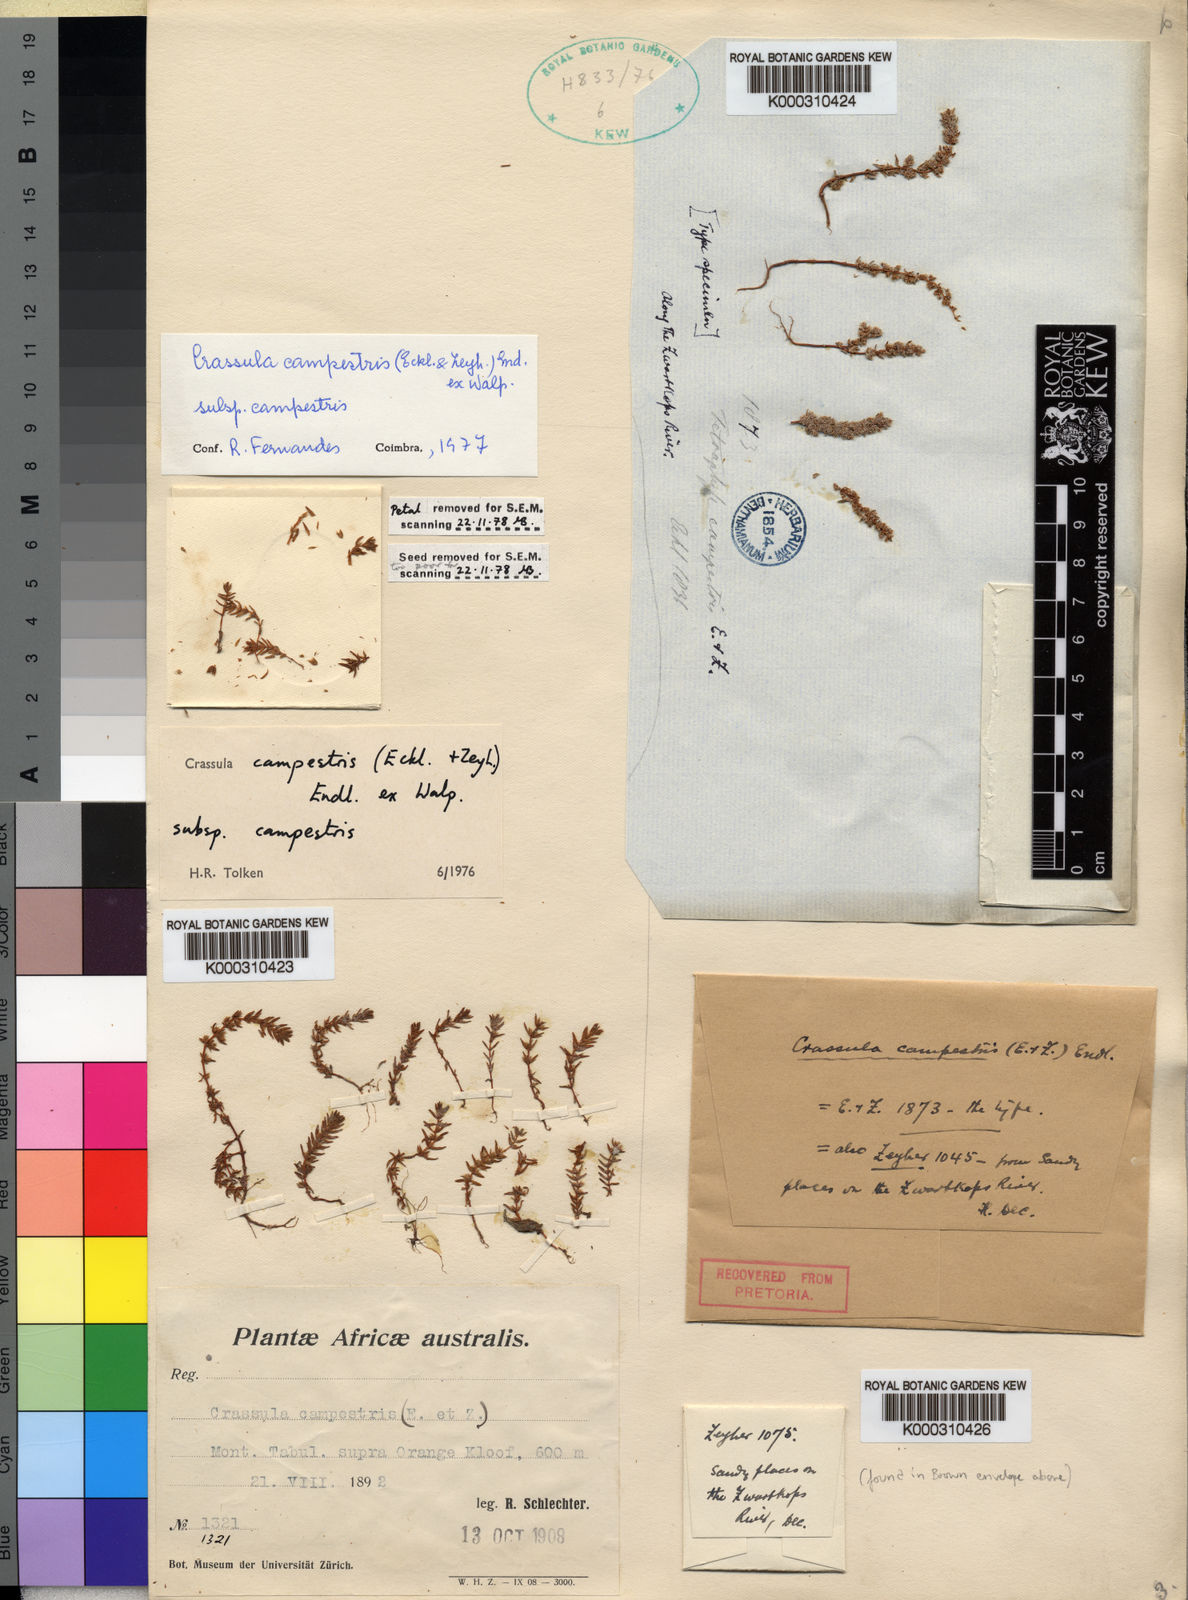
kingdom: Plantae
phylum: Tracheophyta
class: Magnoliopsida
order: Saxifragales
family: Crassulaceae
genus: Crassula
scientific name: Crassula
